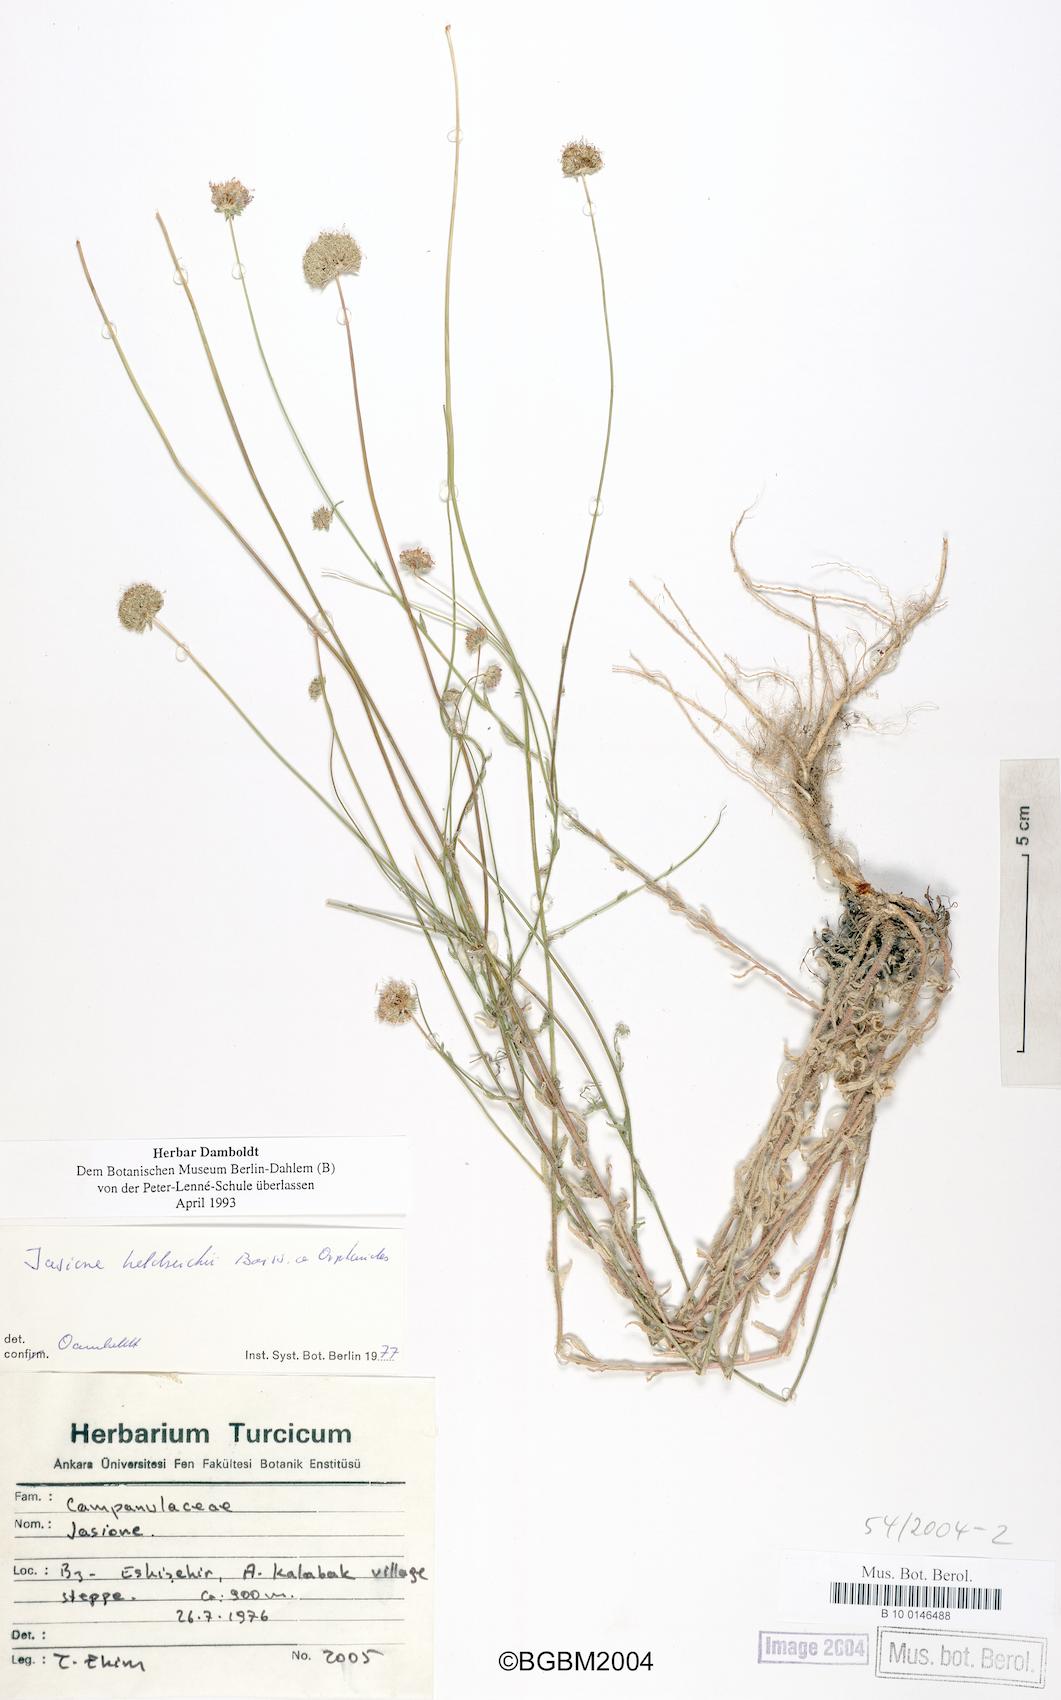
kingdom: Plantae
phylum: Tracheophyta
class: Magnoliopsida
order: Asterales
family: Campanulaceae
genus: Jasione
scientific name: Jasione heldreichii
